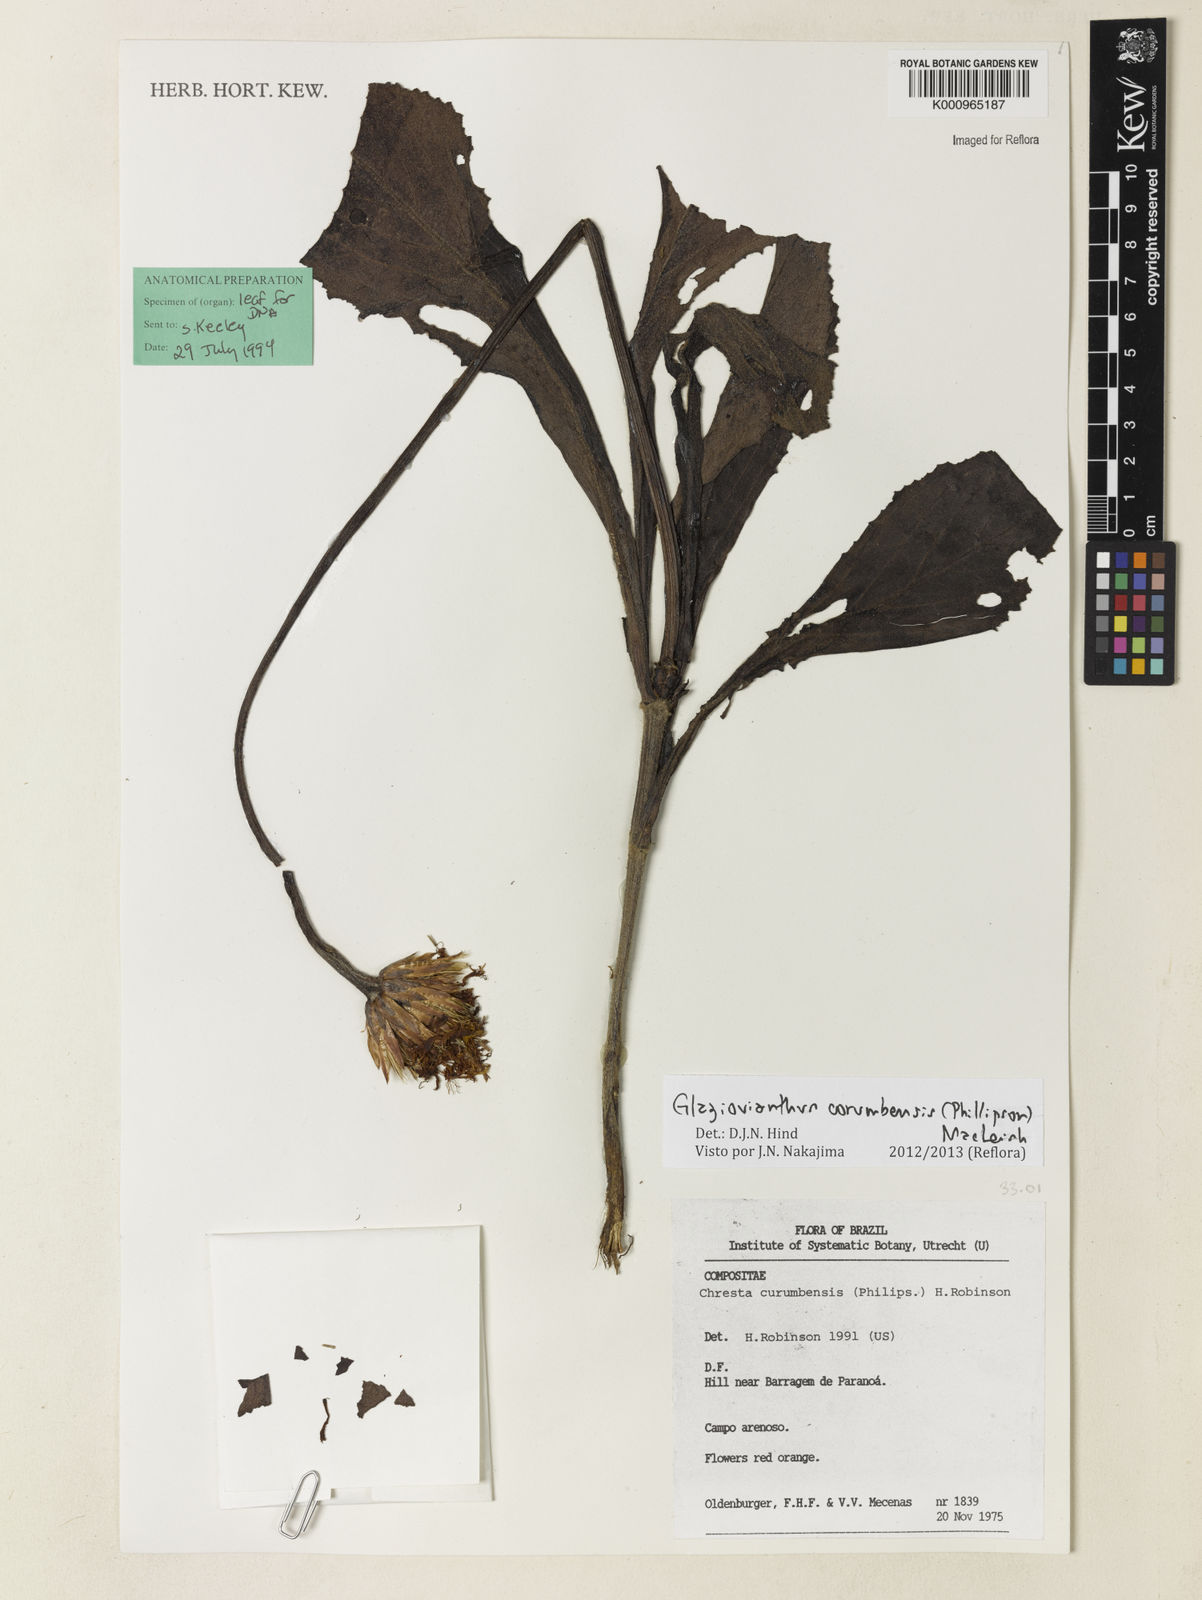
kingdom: Plantae
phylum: Tracheophyta
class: Magnoliopsida
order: Asterales
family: Asteraceae
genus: Chresta
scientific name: Chresta curumbensis
